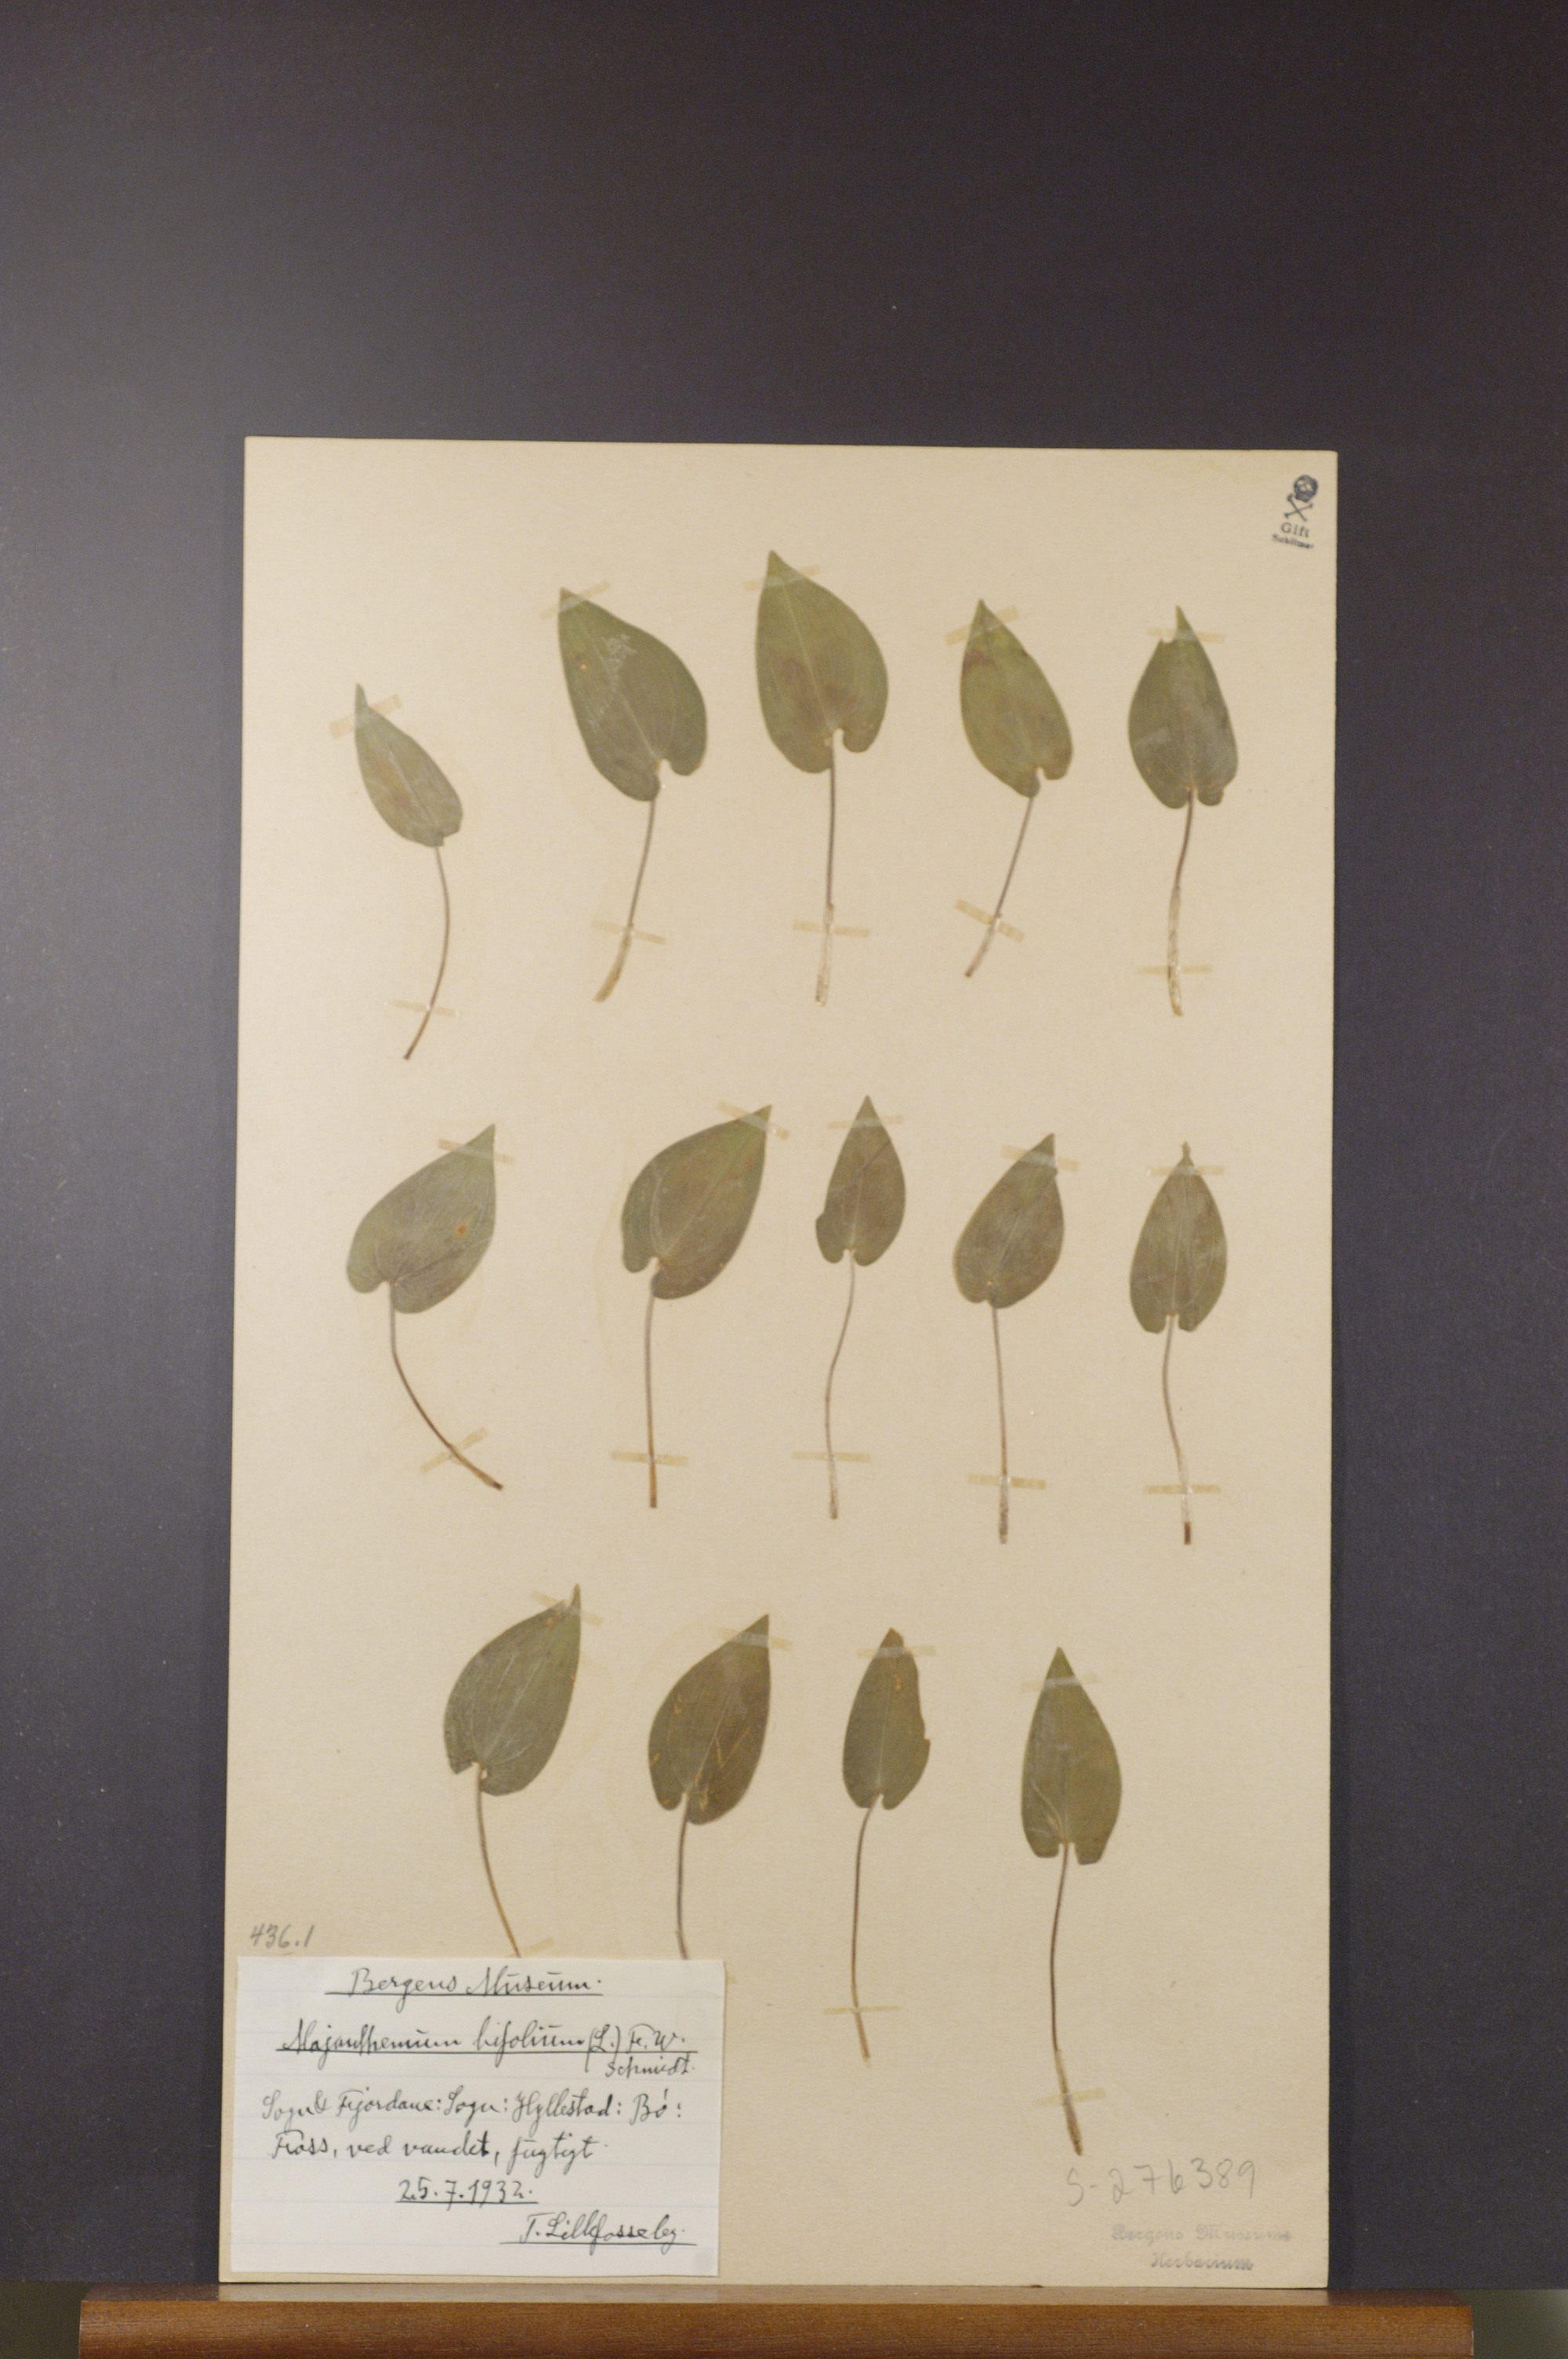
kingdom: Plantae
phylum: Tracheophyta
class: Liliopsida
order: Asparagales
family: Asparagaceae
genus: Maianthemum
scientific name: Maianthemum bifolium
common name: May lily
